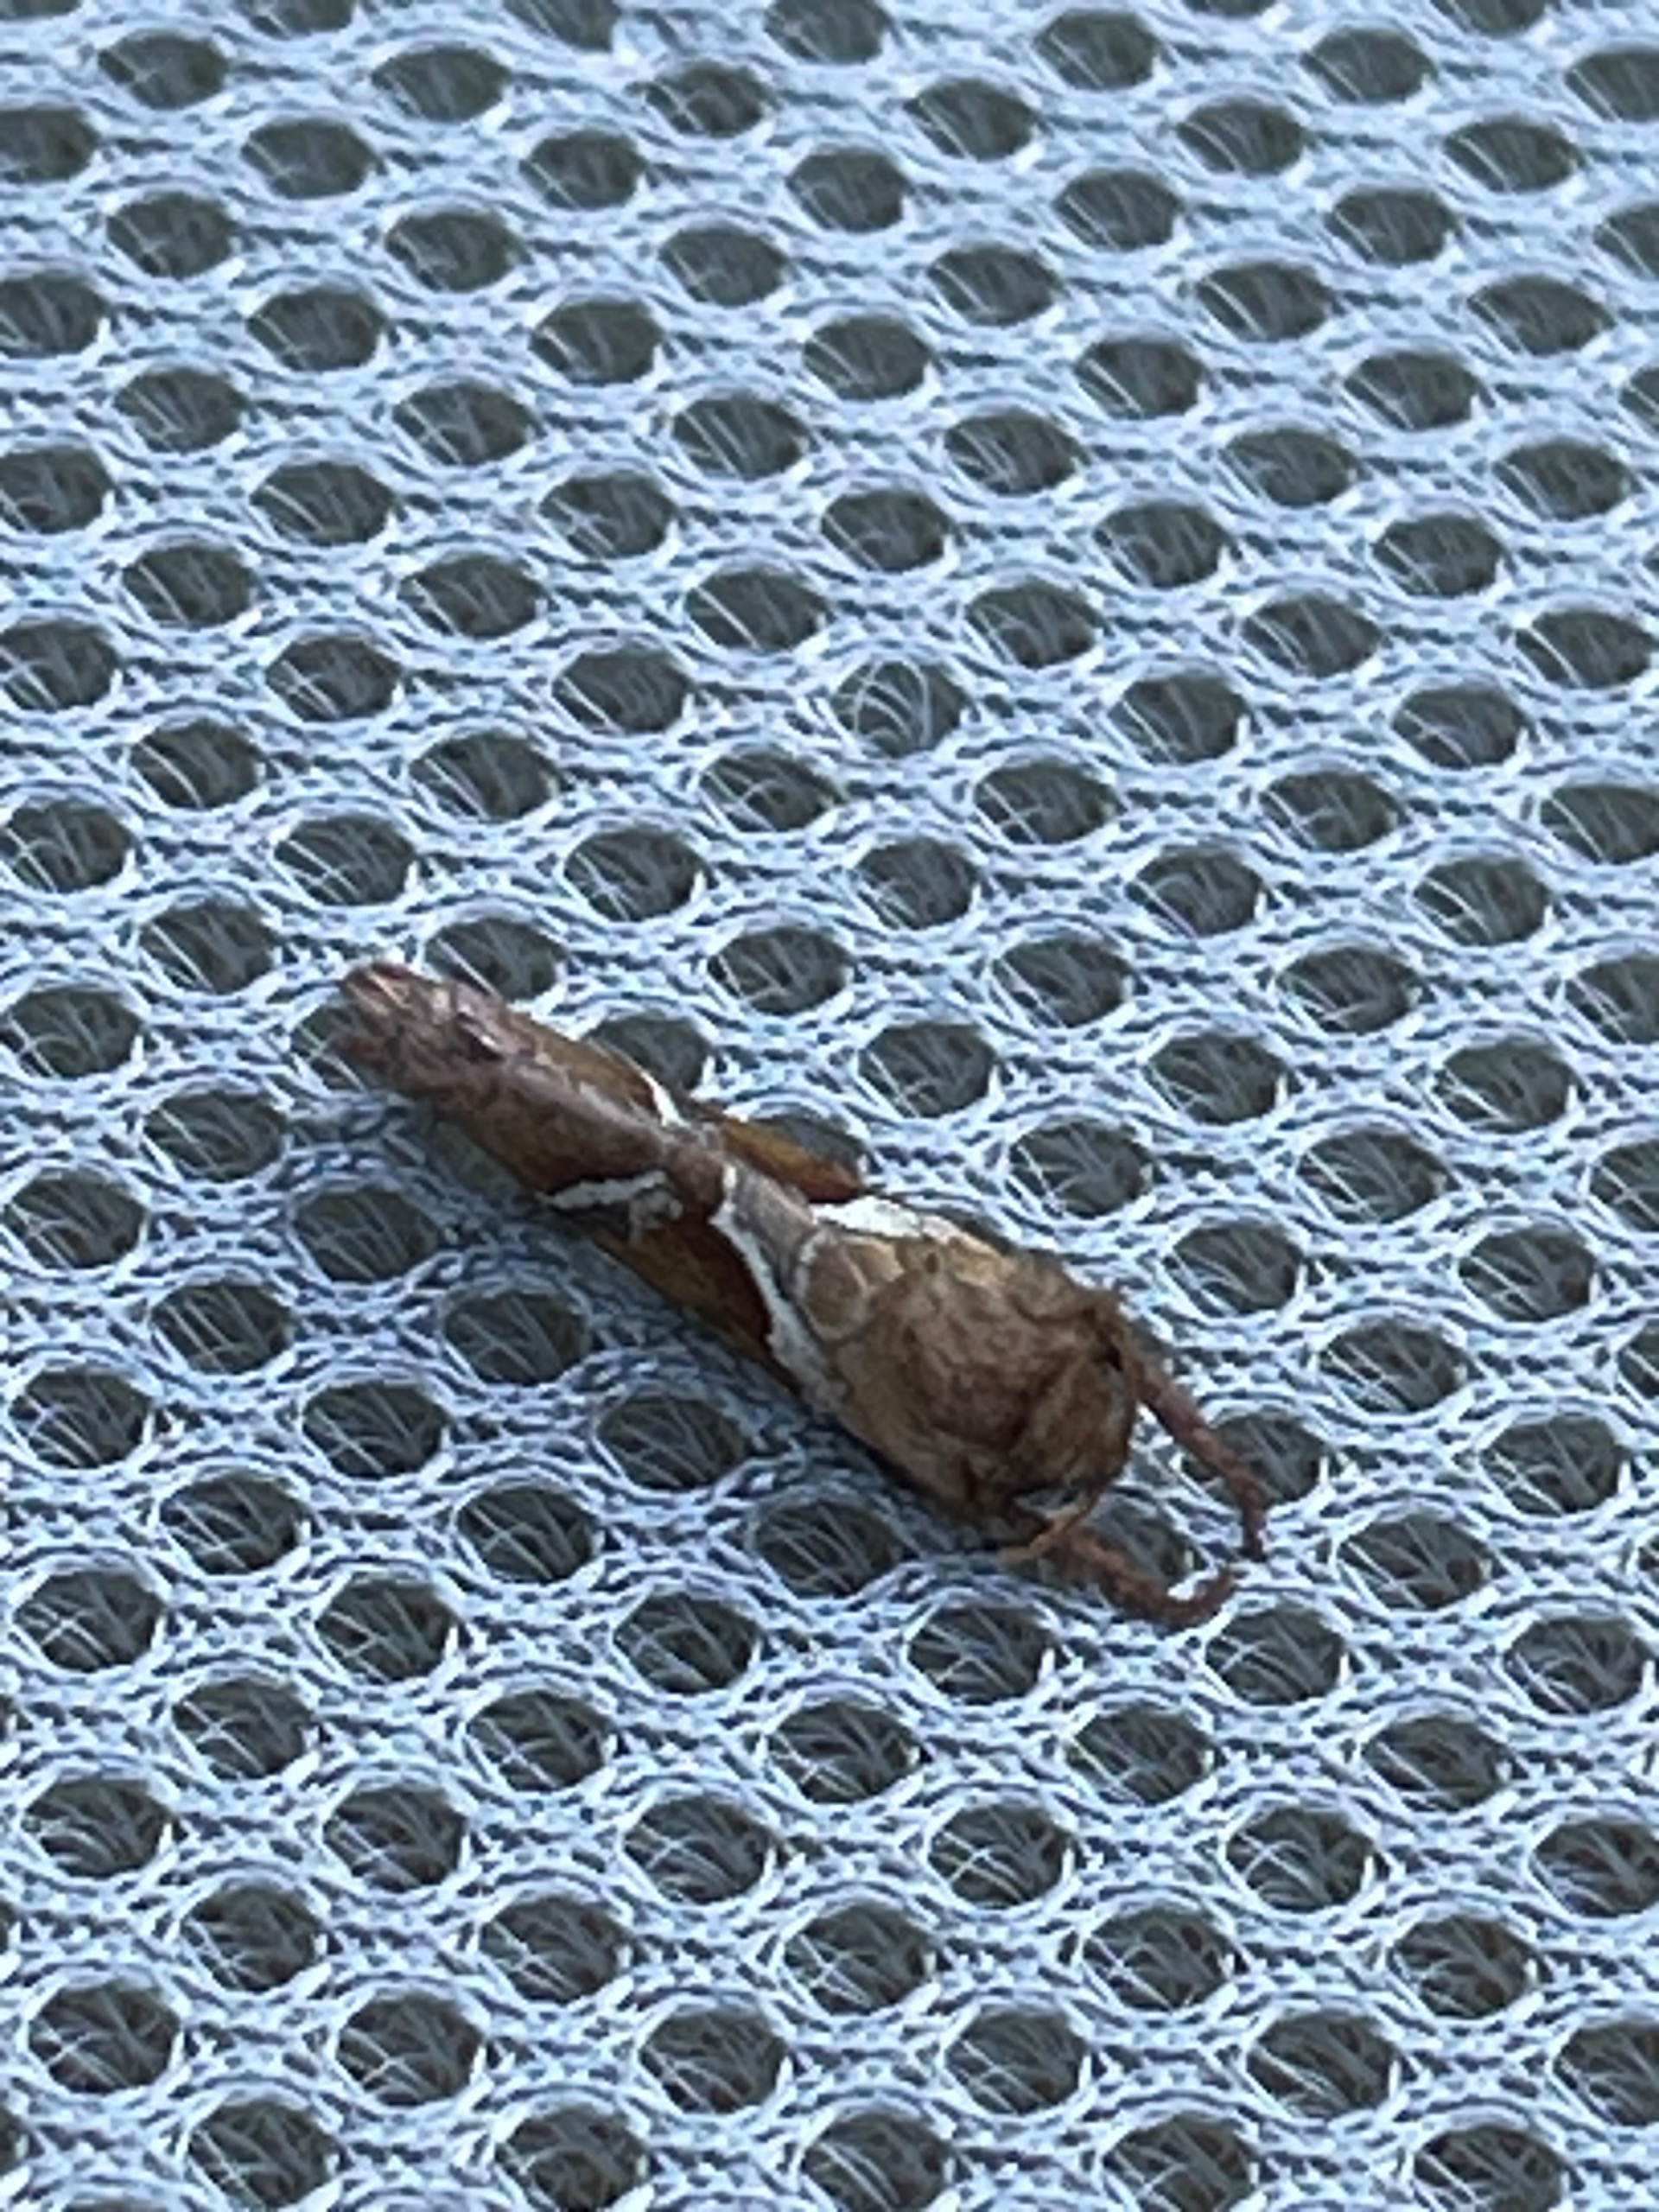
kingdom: Animalia
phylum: Arthropoda
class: Insecta
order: Lepidoptera
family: Hepialidae
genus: Triodia
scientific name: Triodia sylvina
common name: Skræpperodæder
